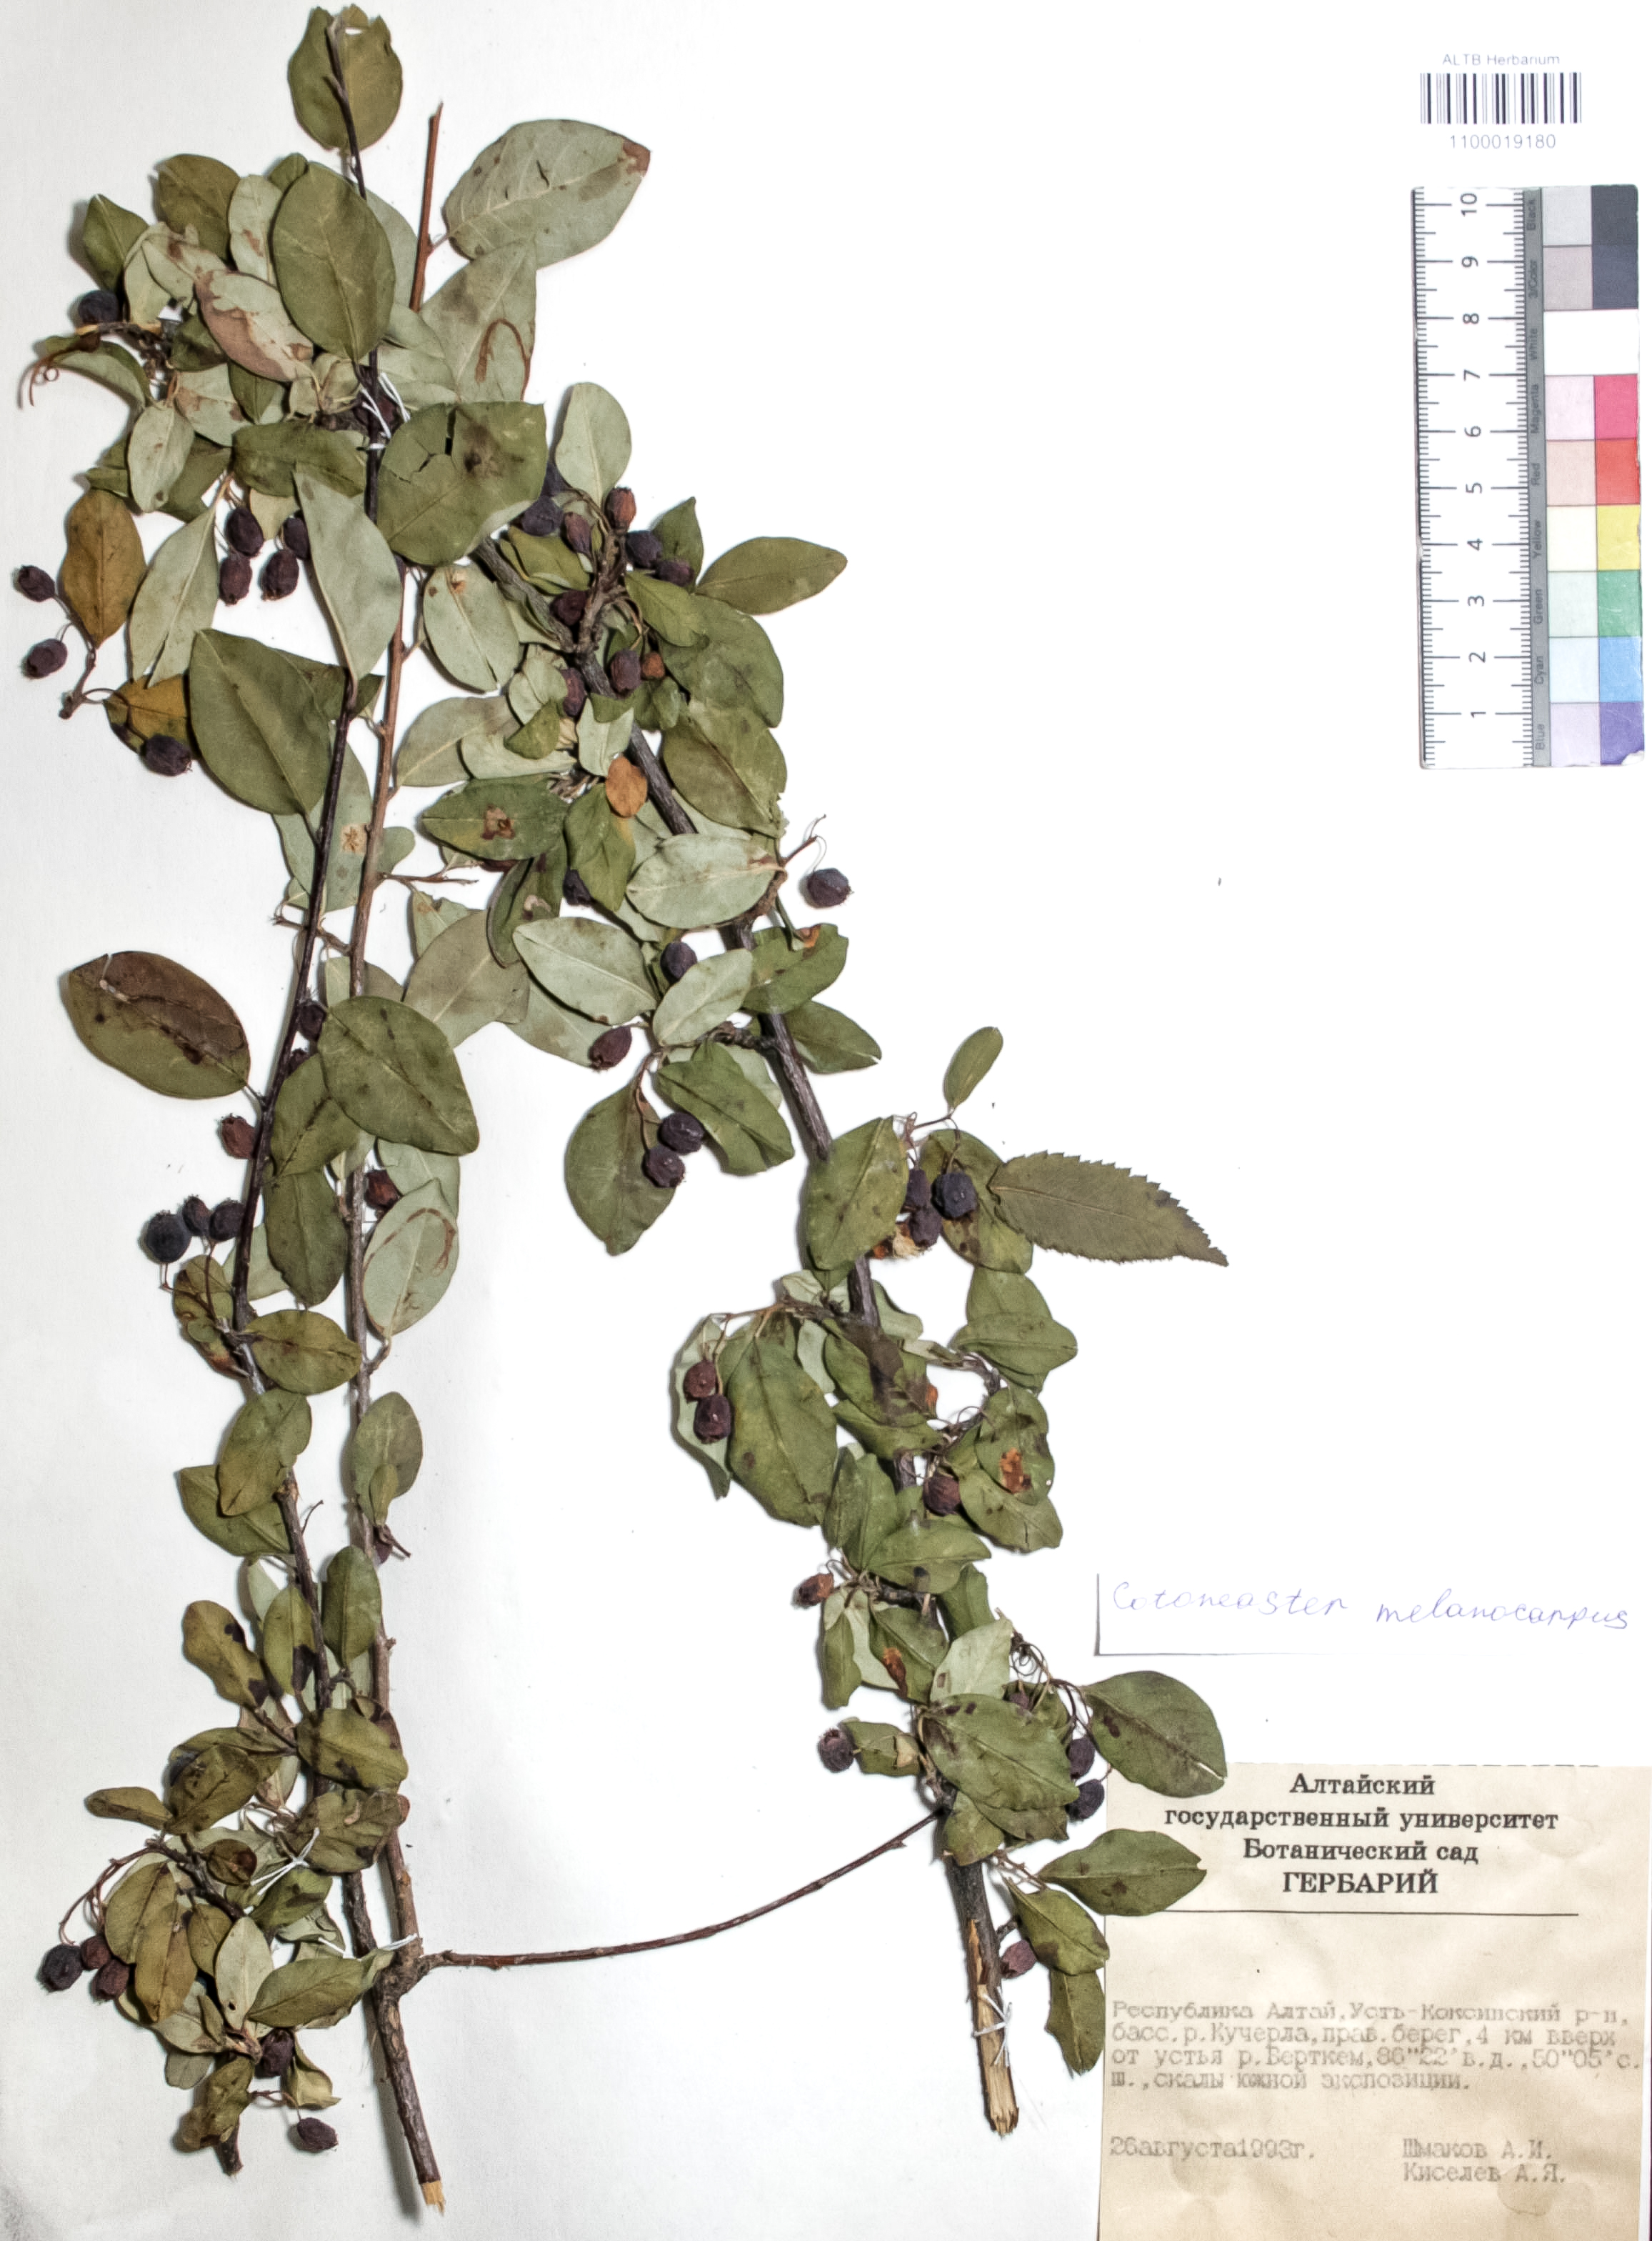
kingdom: Plantae
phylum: Tracheophyta
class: Magnoliopsida
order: Rosales
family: Rosaceae
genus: Cotoneaster
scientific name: Cotoneaster niger
